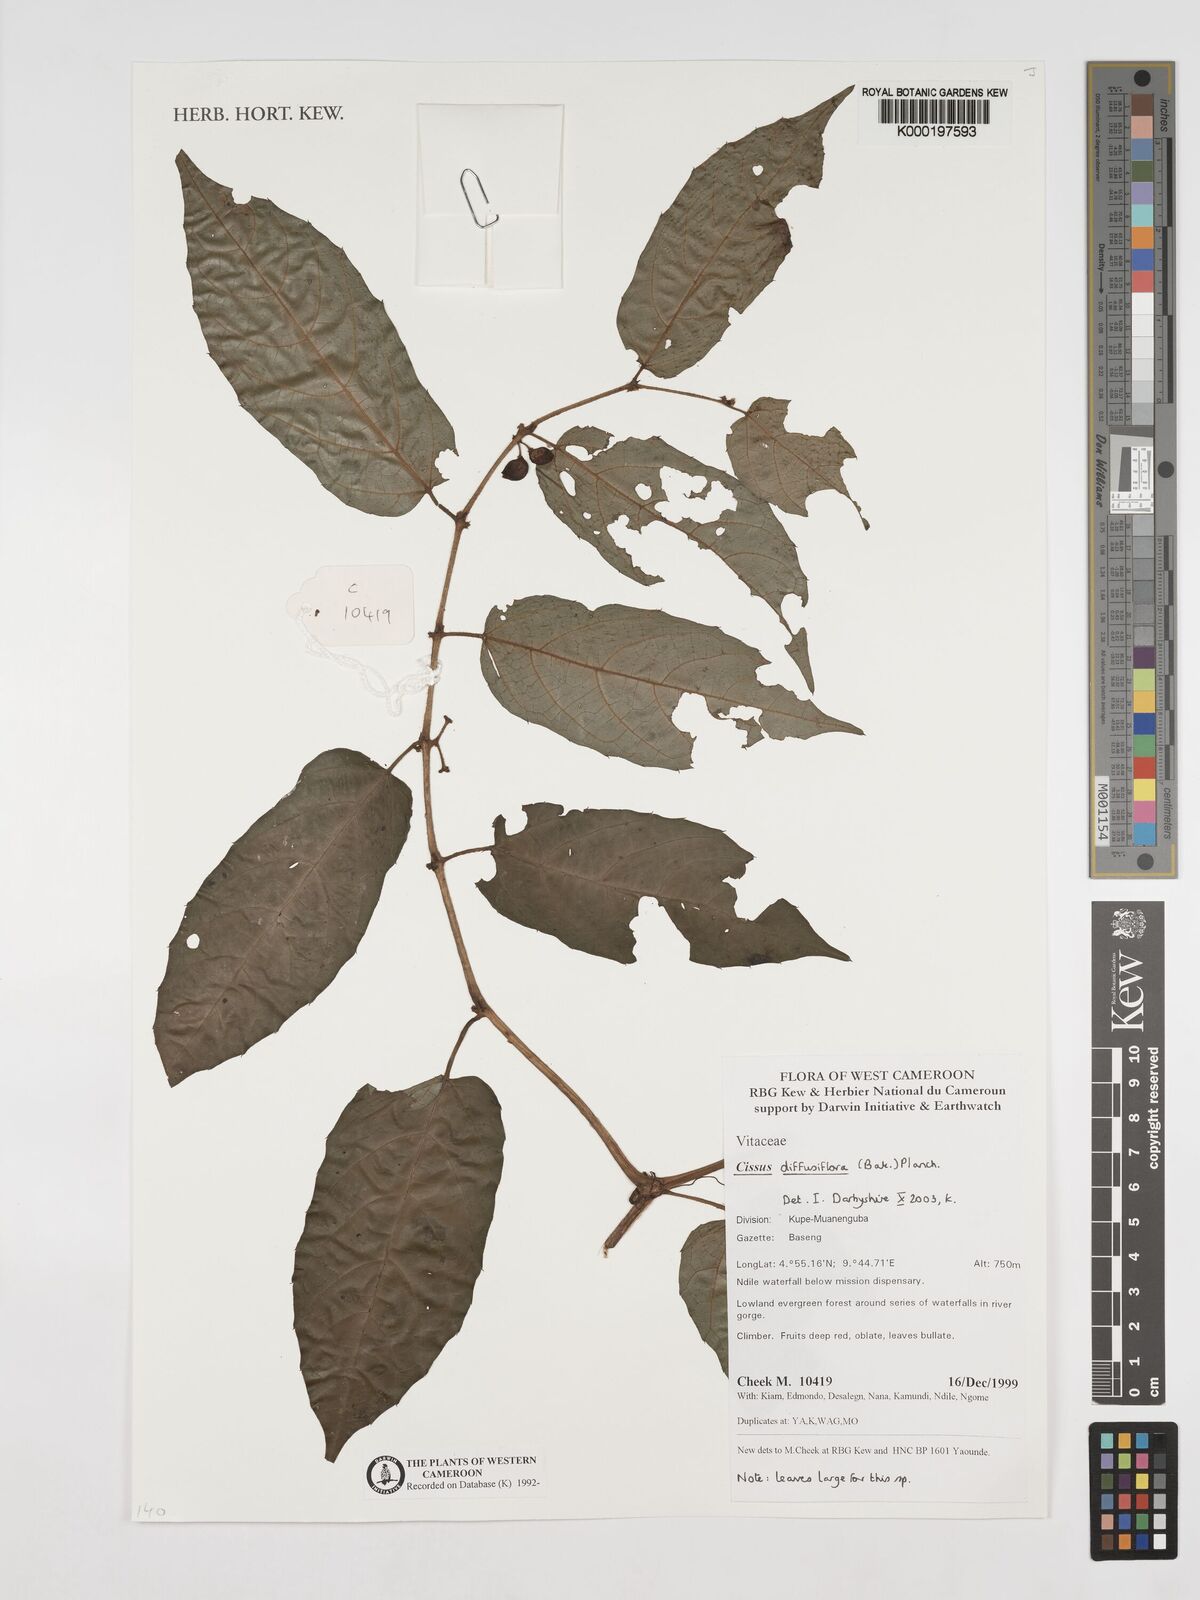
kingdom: Plantae
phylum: Tracheophyta
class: Magnoliopsida
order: Vitales
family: Vitaceae
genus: Cissus
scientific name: Cissus diffusiflora
